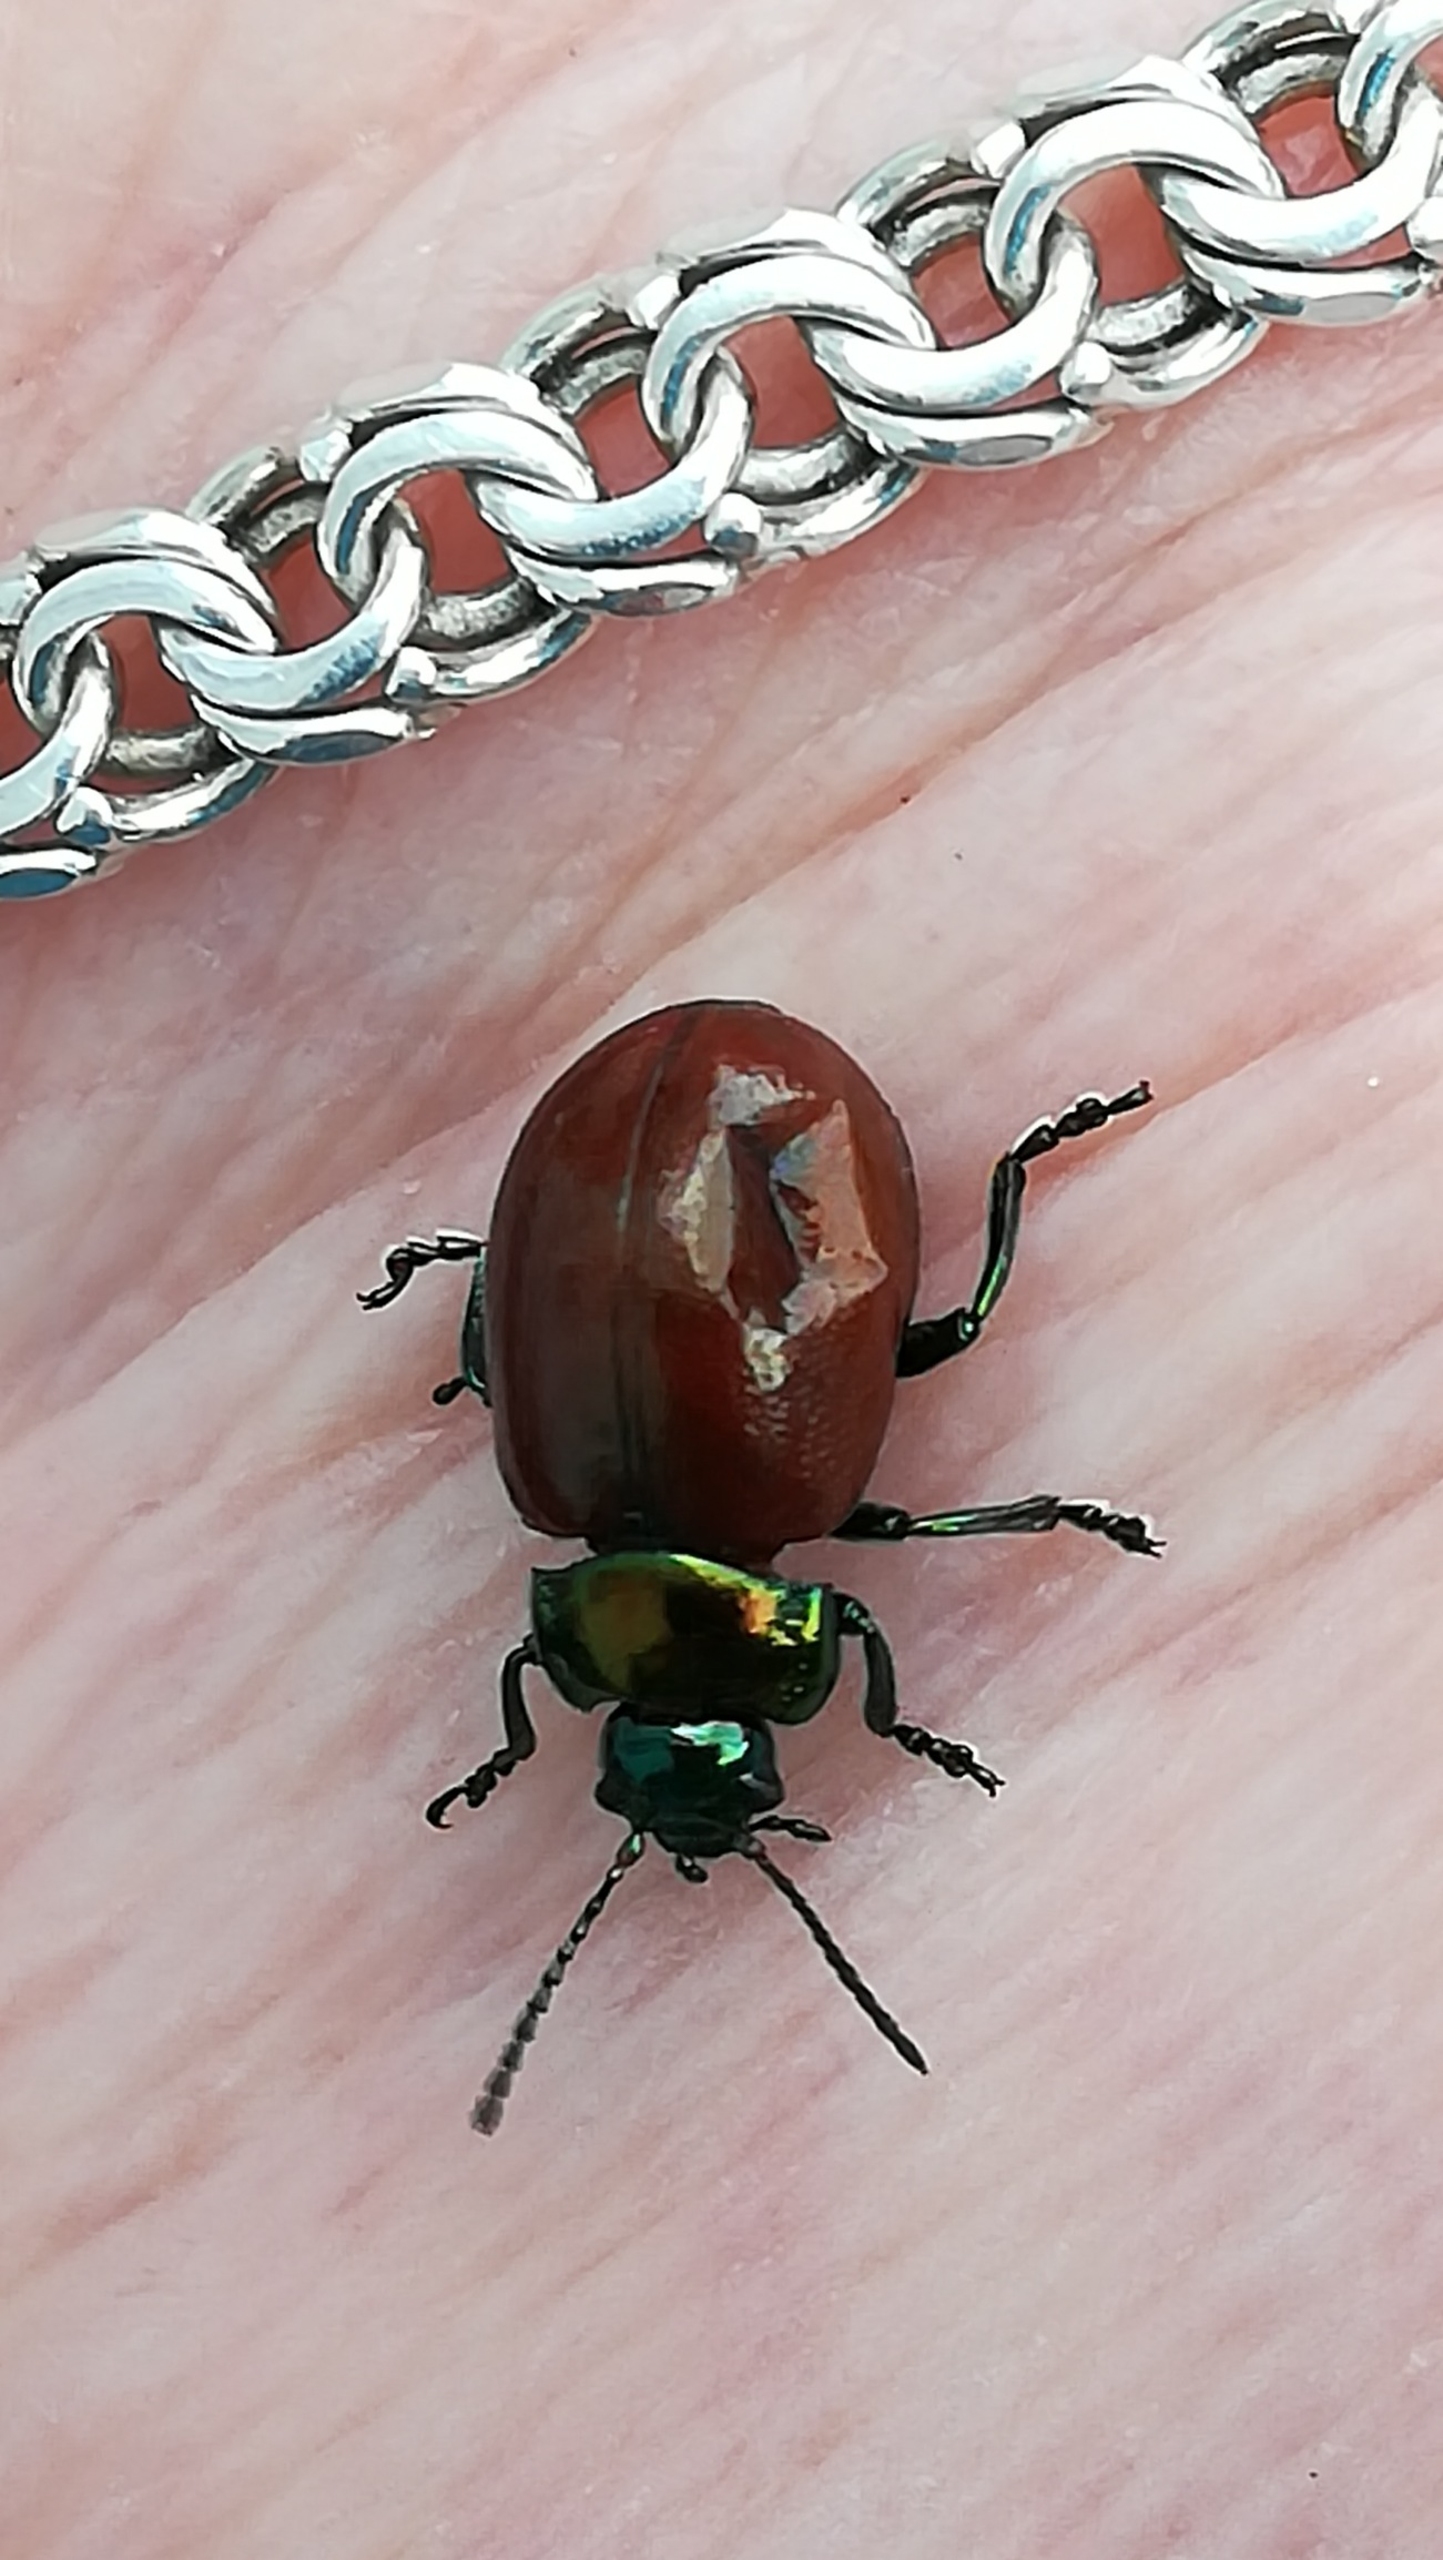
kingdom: Animalia
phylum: Arthropoda
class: Insecta
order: Coleoptera
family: Chrysomelidae
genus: Chrysomela
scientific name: Chrysomela polita
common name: Forskelligfarvet guldbille
